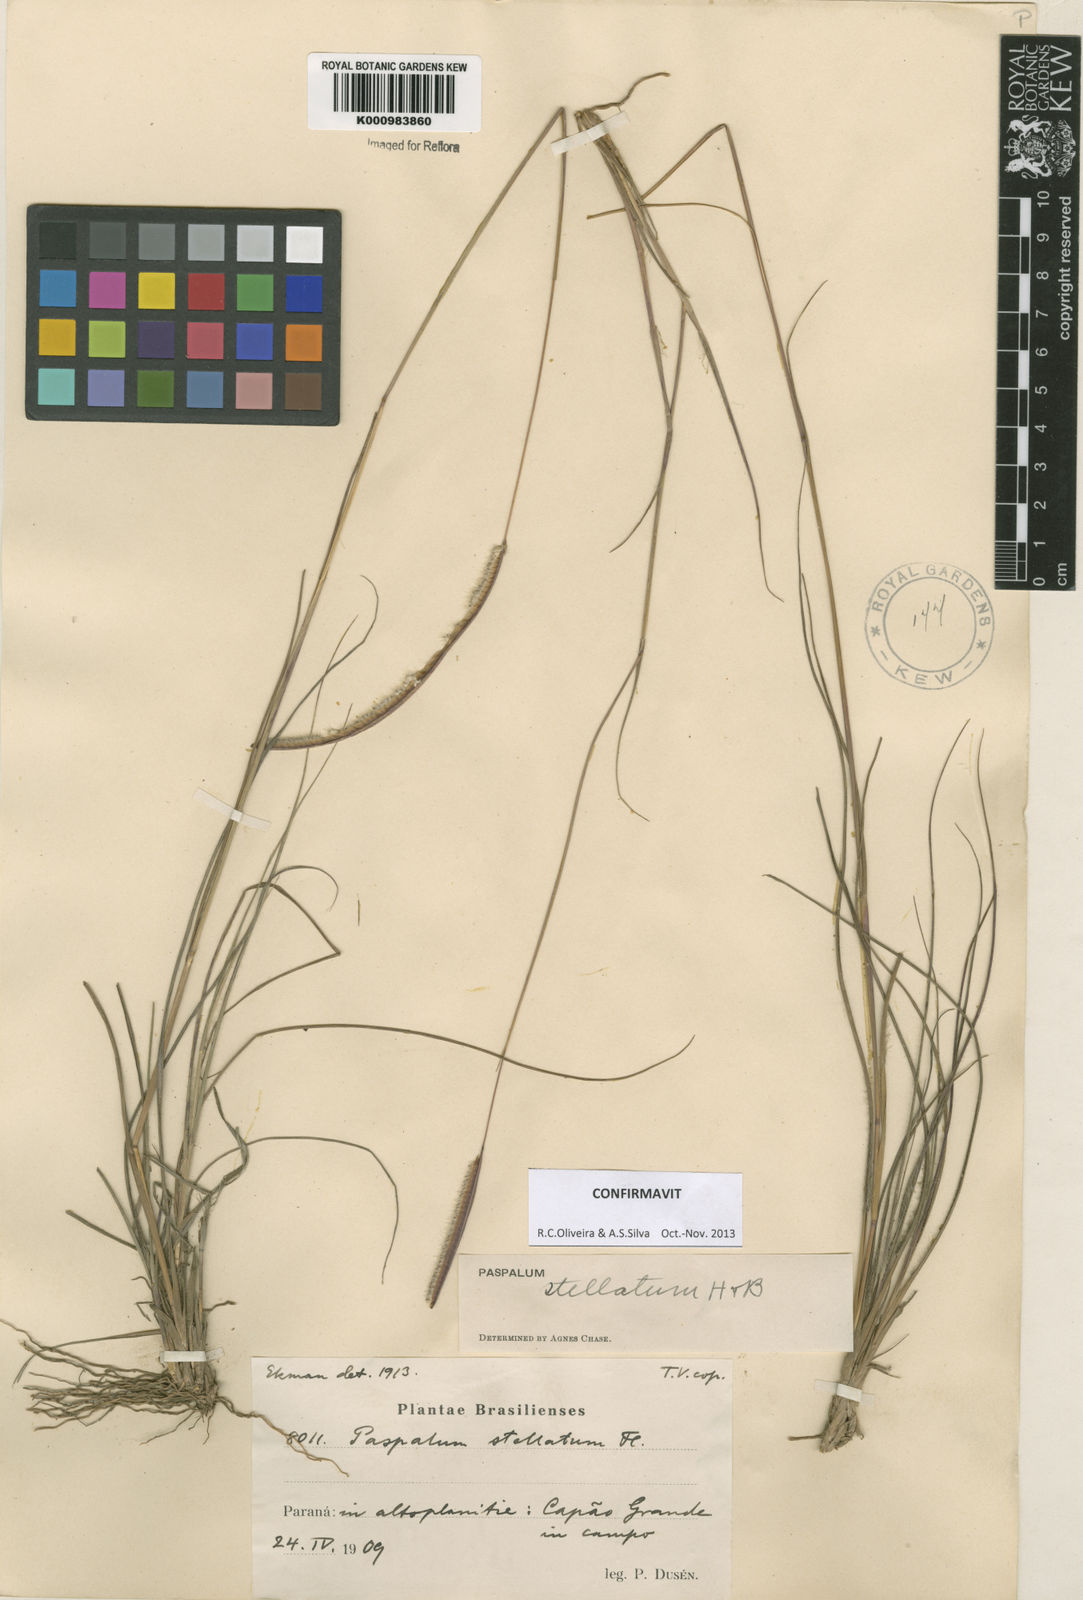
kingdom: Plantae
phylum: Tracheophyta
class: Liliopsida
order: Poales
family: Poaceae
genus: Paspalum
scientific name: Paspalum
